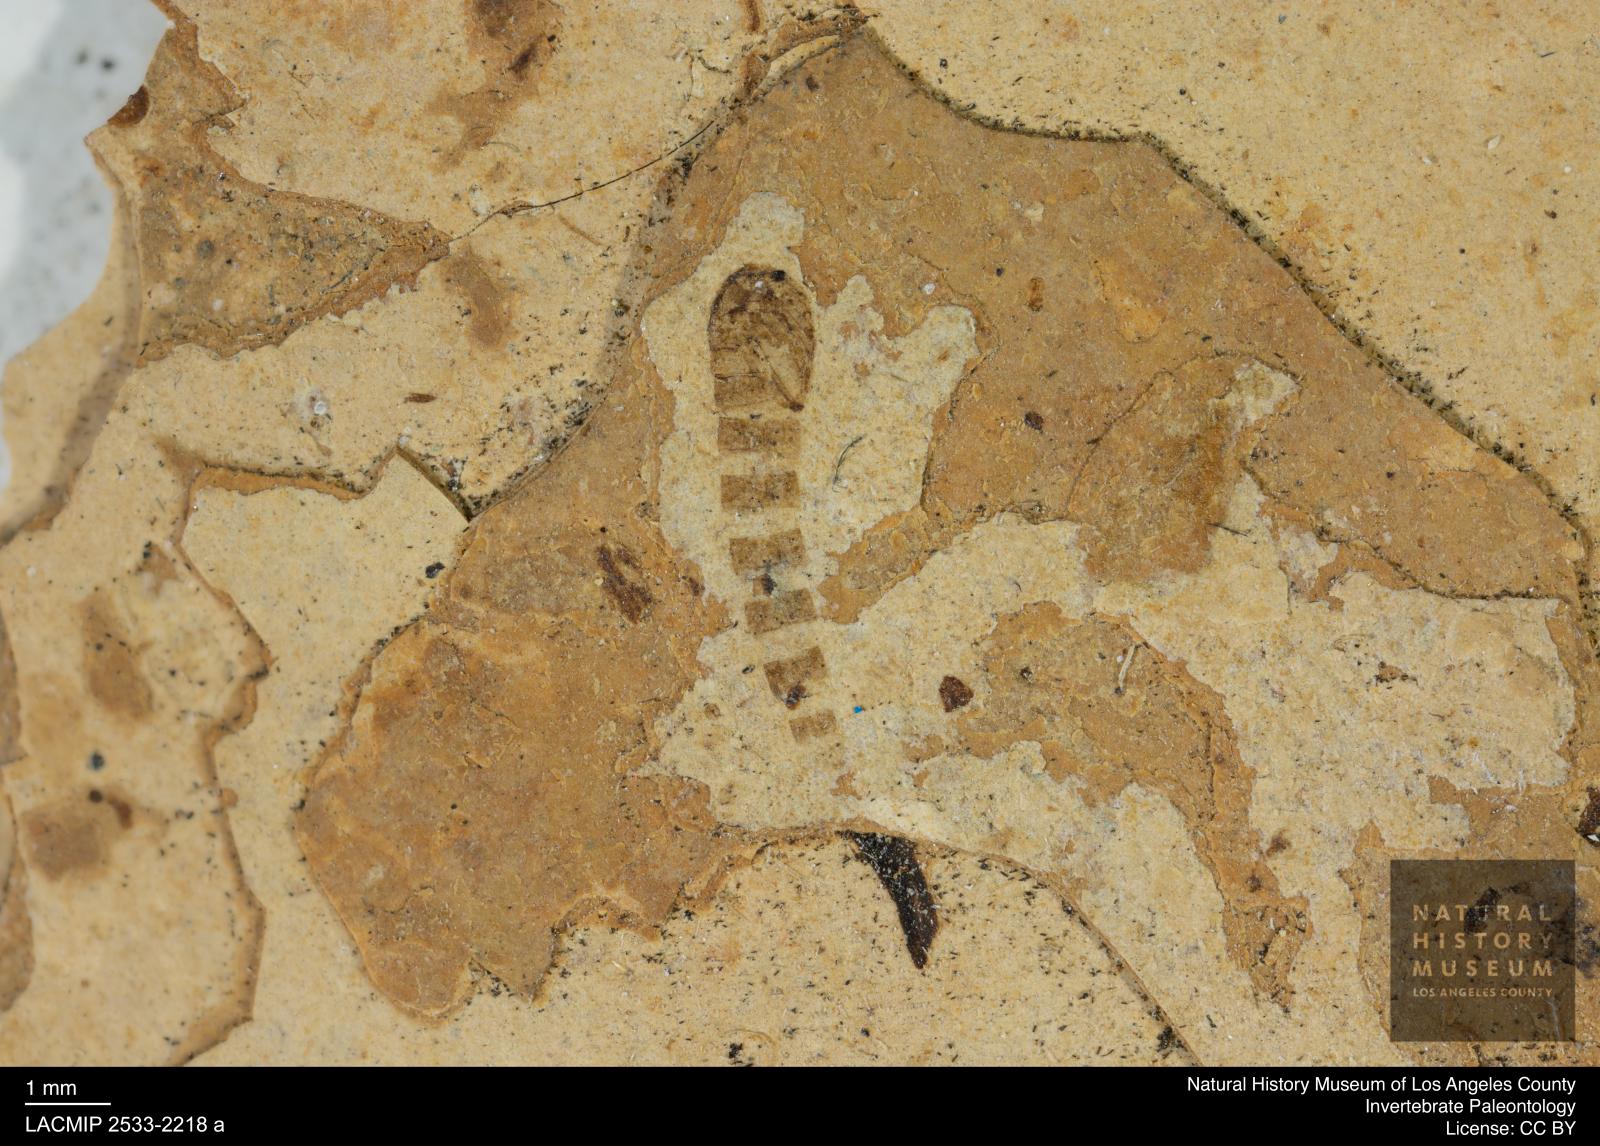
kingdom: Animalia
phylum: Arthropoda
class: Insecta
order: Diptera
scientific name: Diptera
